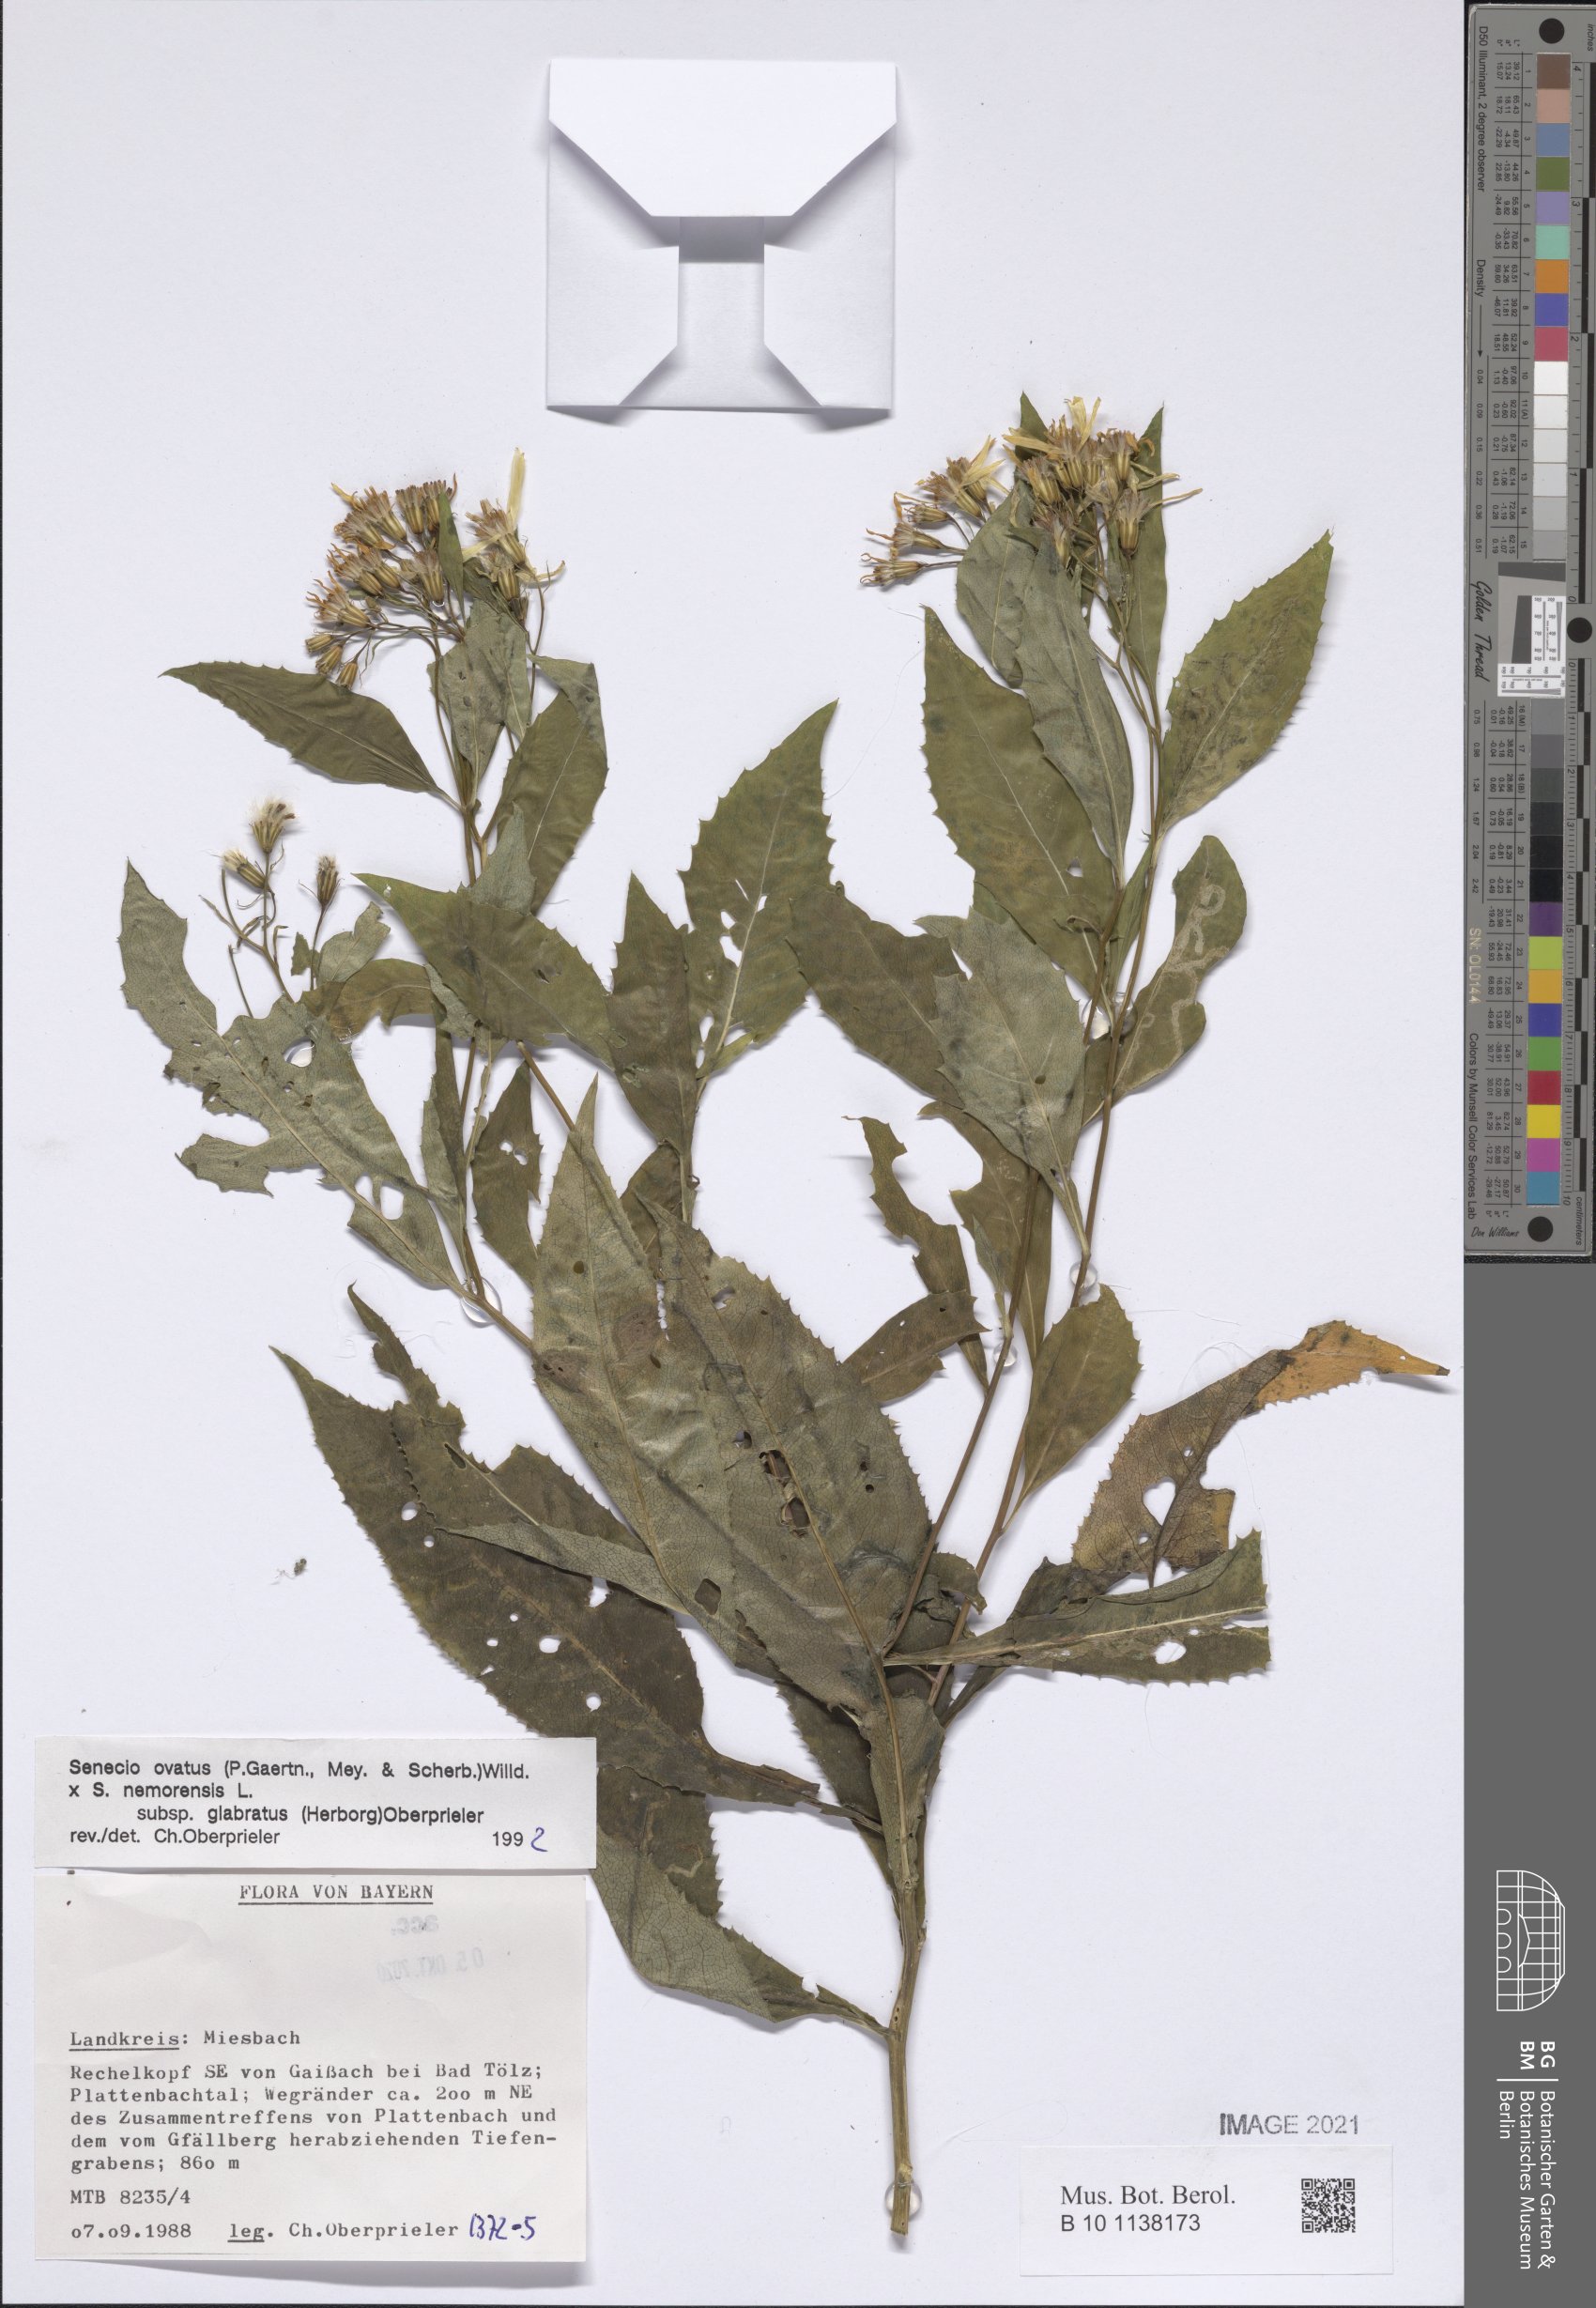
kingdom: Plantae
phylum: Tracheophyta
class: Magnoliopsida
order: Asterales
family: Asteraceae
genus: Senecio
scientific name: Senecio ovatus
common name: Wood ragwort
